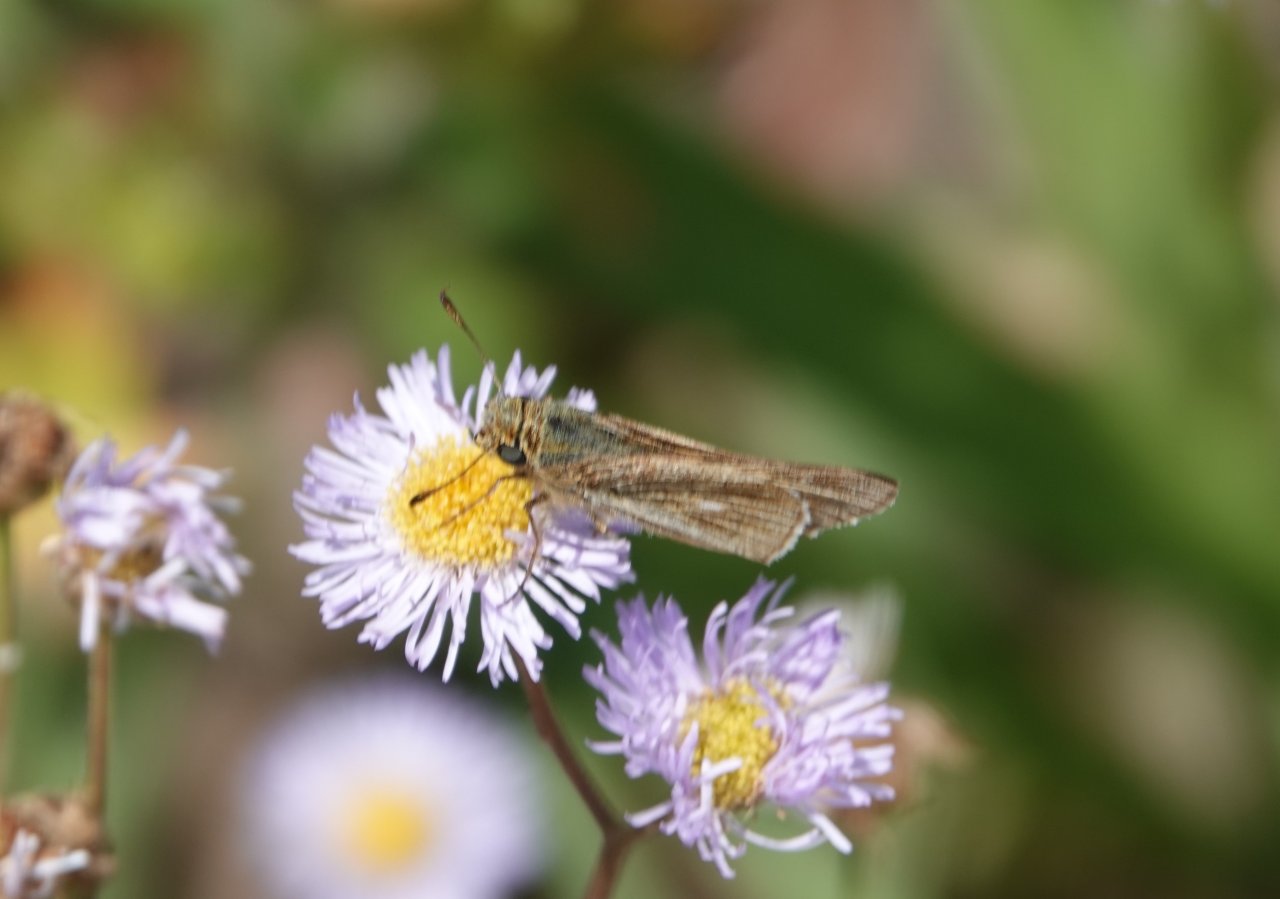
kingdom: Animalia
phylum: Arthropoda
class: Insecta
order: Lepidoptera
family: Hesperiidae
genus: Panoquina
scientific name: Panoquina panoquin
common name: Salt Marsh Skipper
